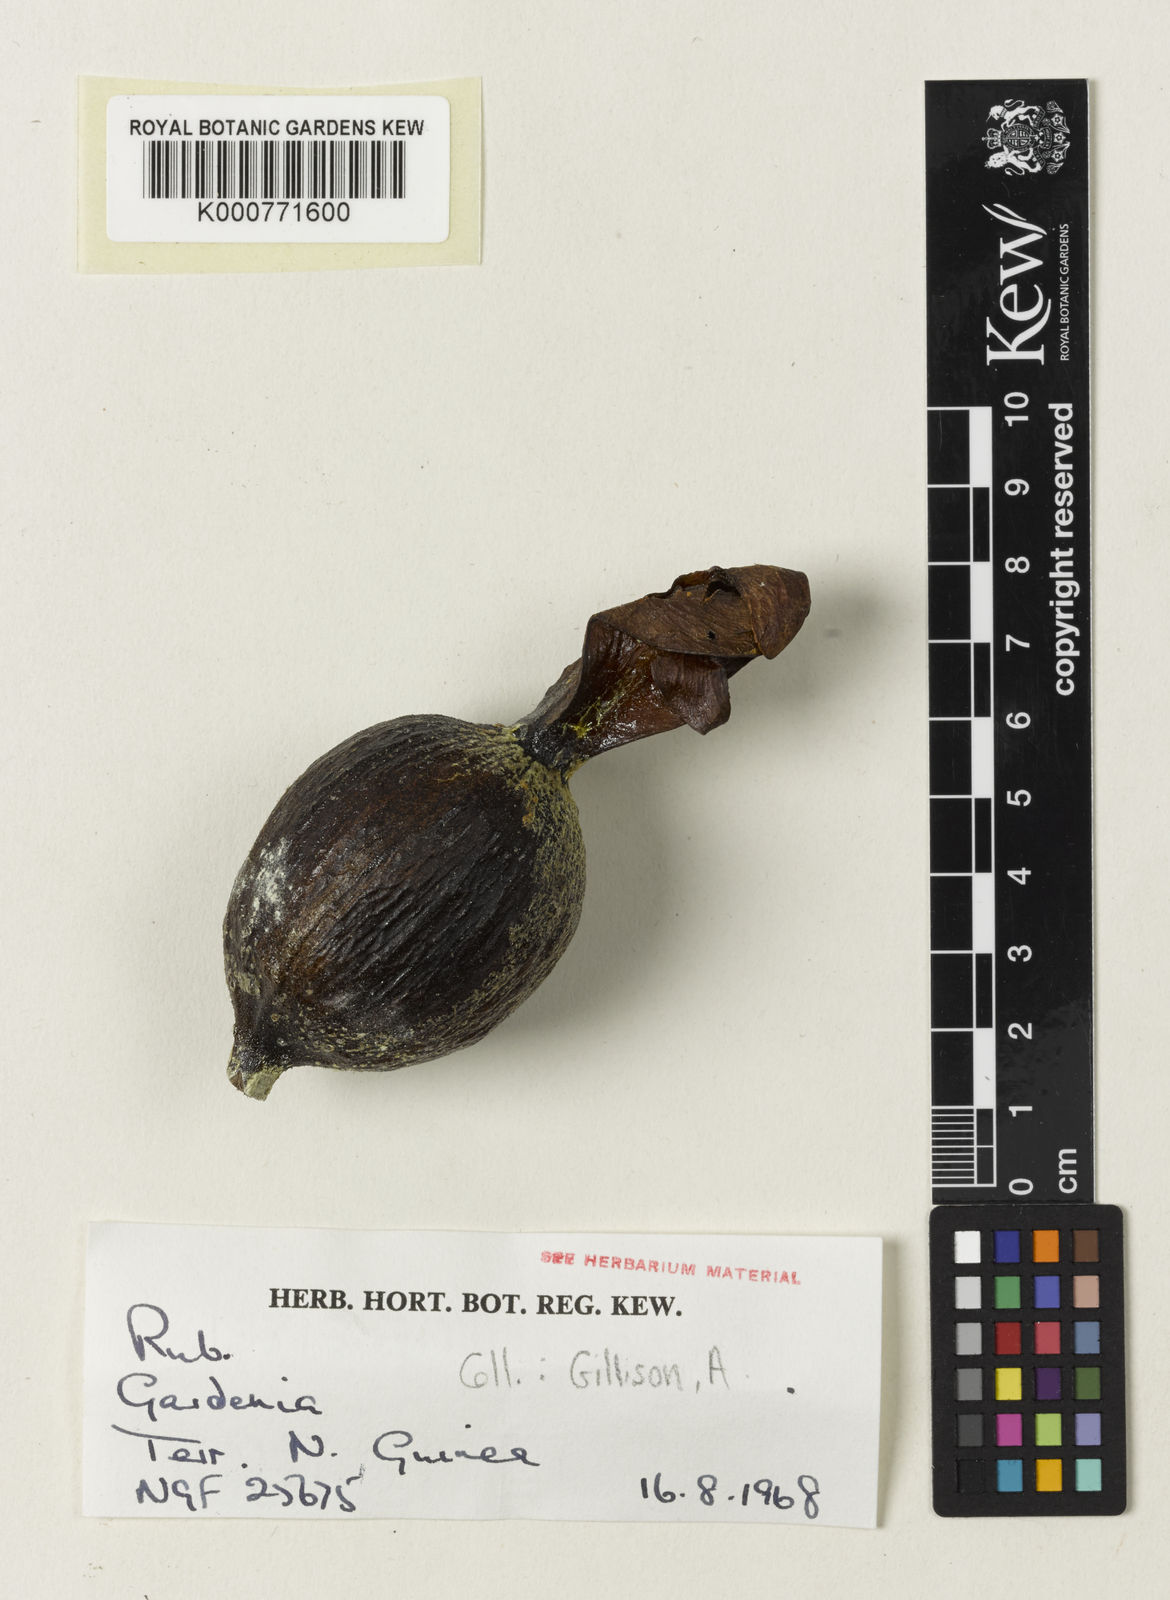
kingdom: Plantae
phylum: Tracheophyta
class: Magnoliopsida
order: Gentianales
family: Rubiaceae
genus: Gardenia
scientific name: Gardenia
